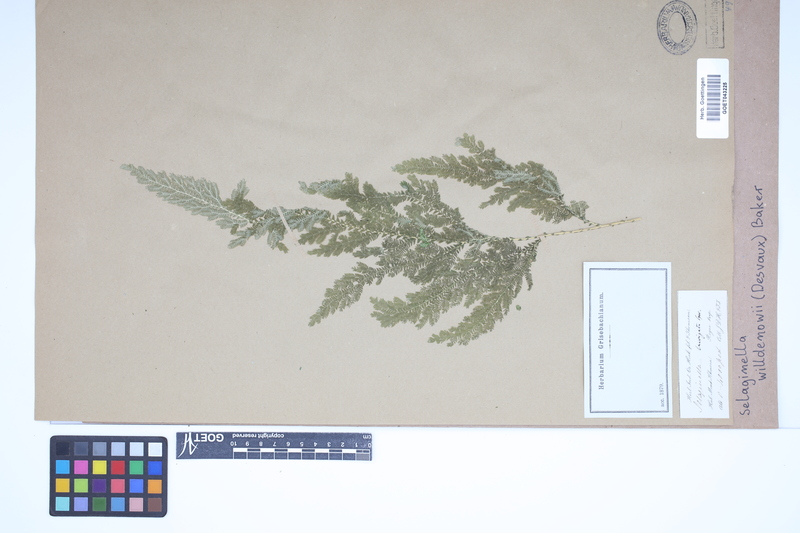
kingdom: Plantae
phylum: Tracheophyta
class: Lycopodiopsida
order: Selaginellales
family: Selaginellaceae
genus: Selaginella
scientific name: Selaginella willdenowii
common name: Willdenow's spikemoss
